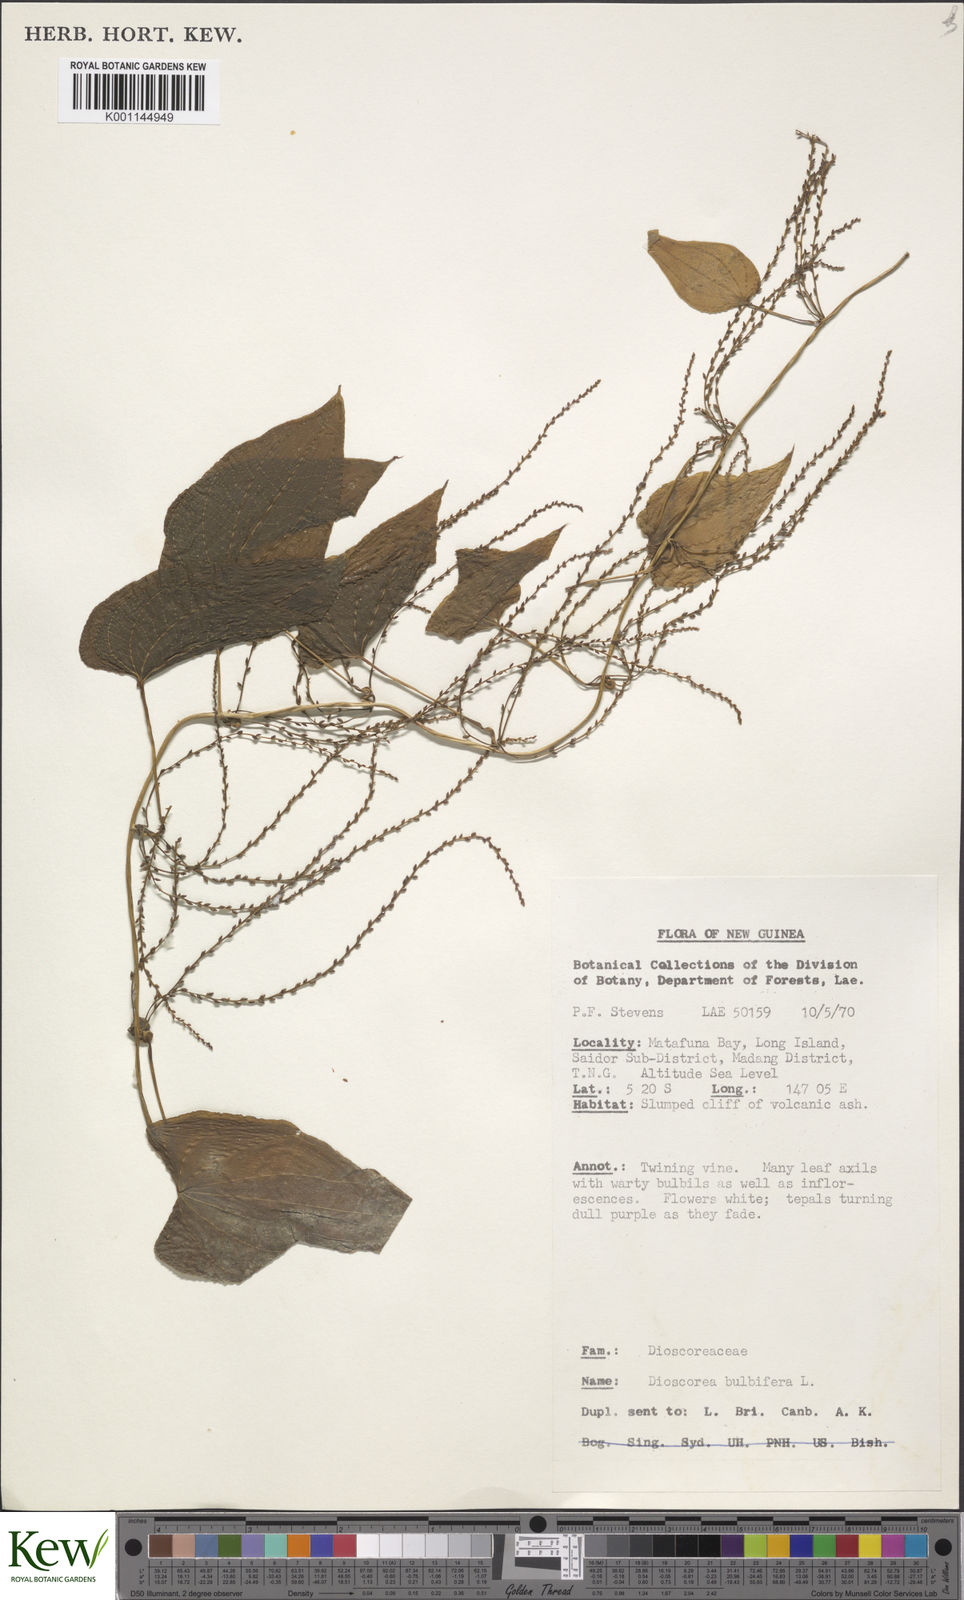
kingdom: Plantae
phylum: Tracheophyta
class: Liliopsida
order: Dioscoreales
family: Dioscoreaceae
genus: Dioscorea
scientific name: Dioscorea bulbifera
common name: Air yam
